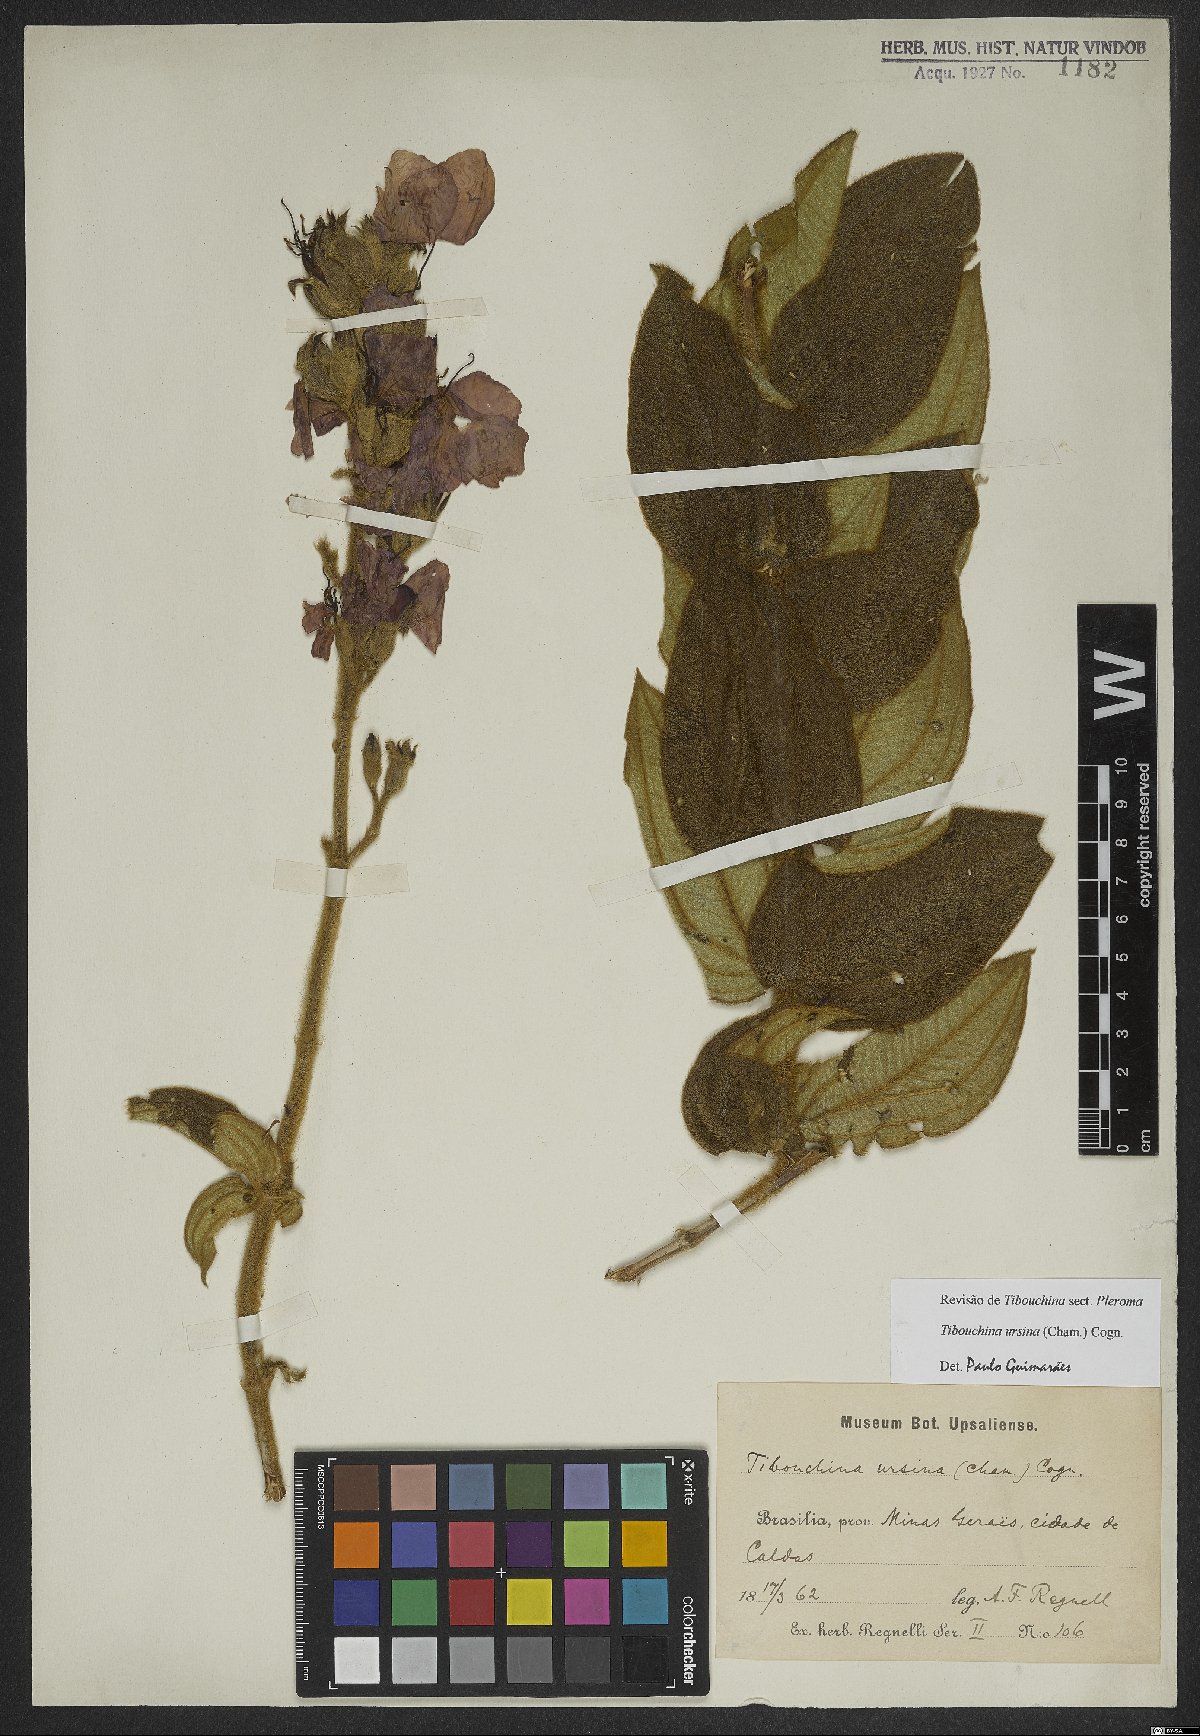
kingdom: Plantae
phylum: Tracheophyta
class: Magnoliopsida
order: Myrtales
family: Melastomataceae
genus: Pleroma
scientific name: Pleroma ursinum
